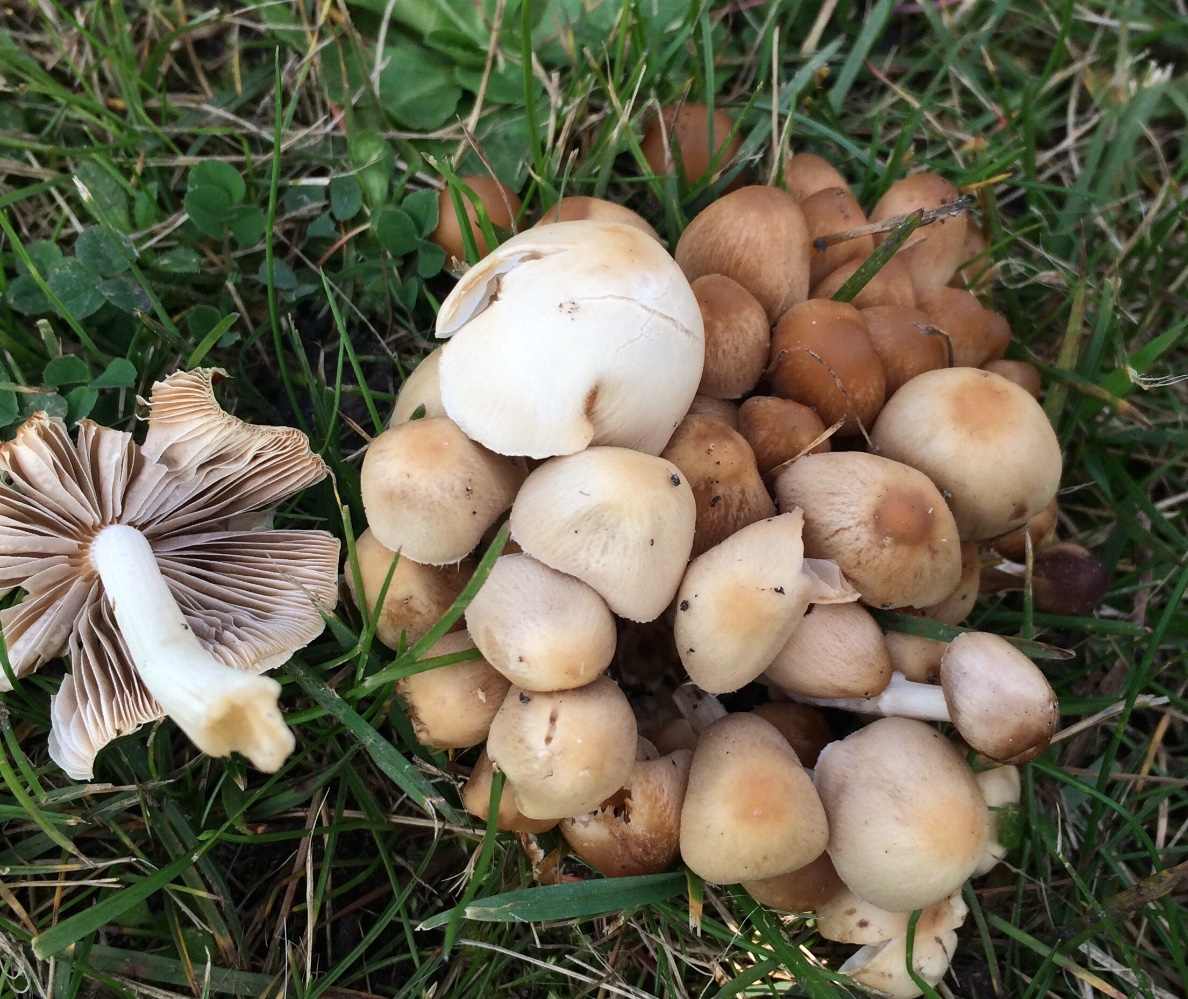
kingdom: Fungi
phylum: Basidiomycota
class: Agaricomycetes
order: Agaricales
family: Psathyrellaceae
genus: Britzelmayria
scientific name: Britzelmayria multipedata
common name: knippe-mørkhat
